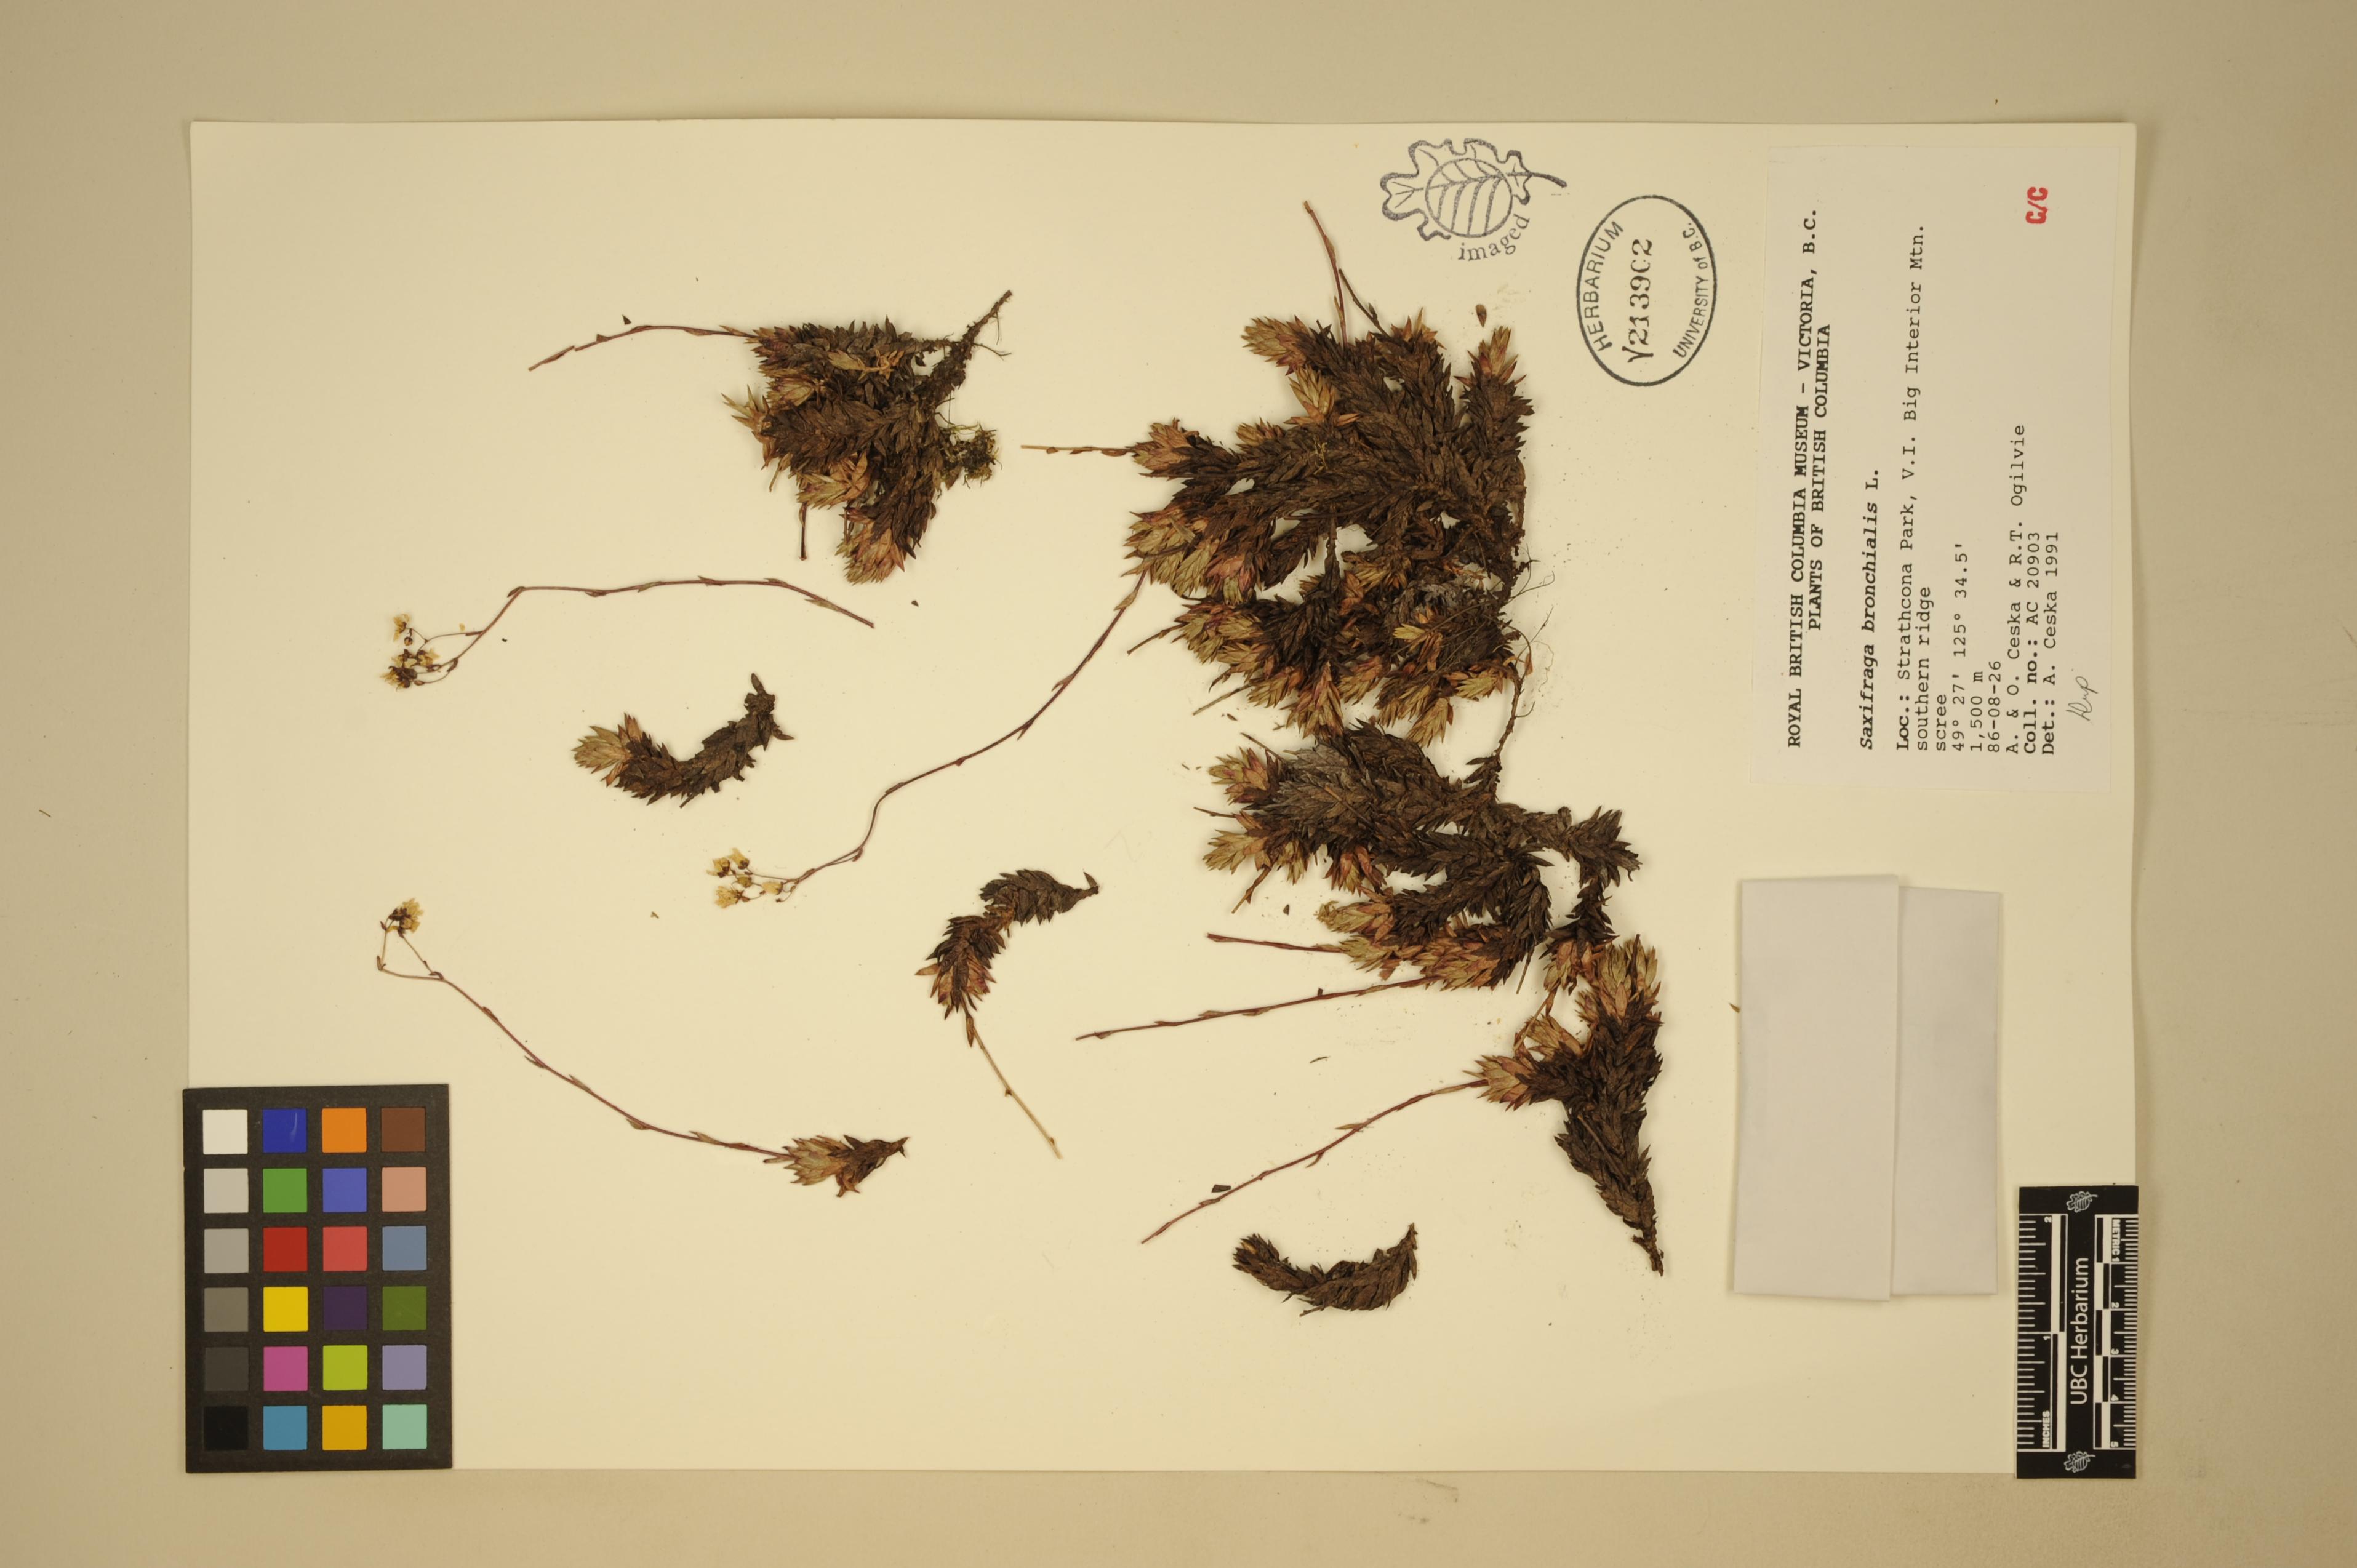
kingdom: Plantae
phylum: Tracheophyta
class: Magnoliopsida
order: Saxifragales
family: Saxifragaceae
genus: Saxifraga
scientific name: Saxifraga bronchialis
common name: Matted saxifrage
